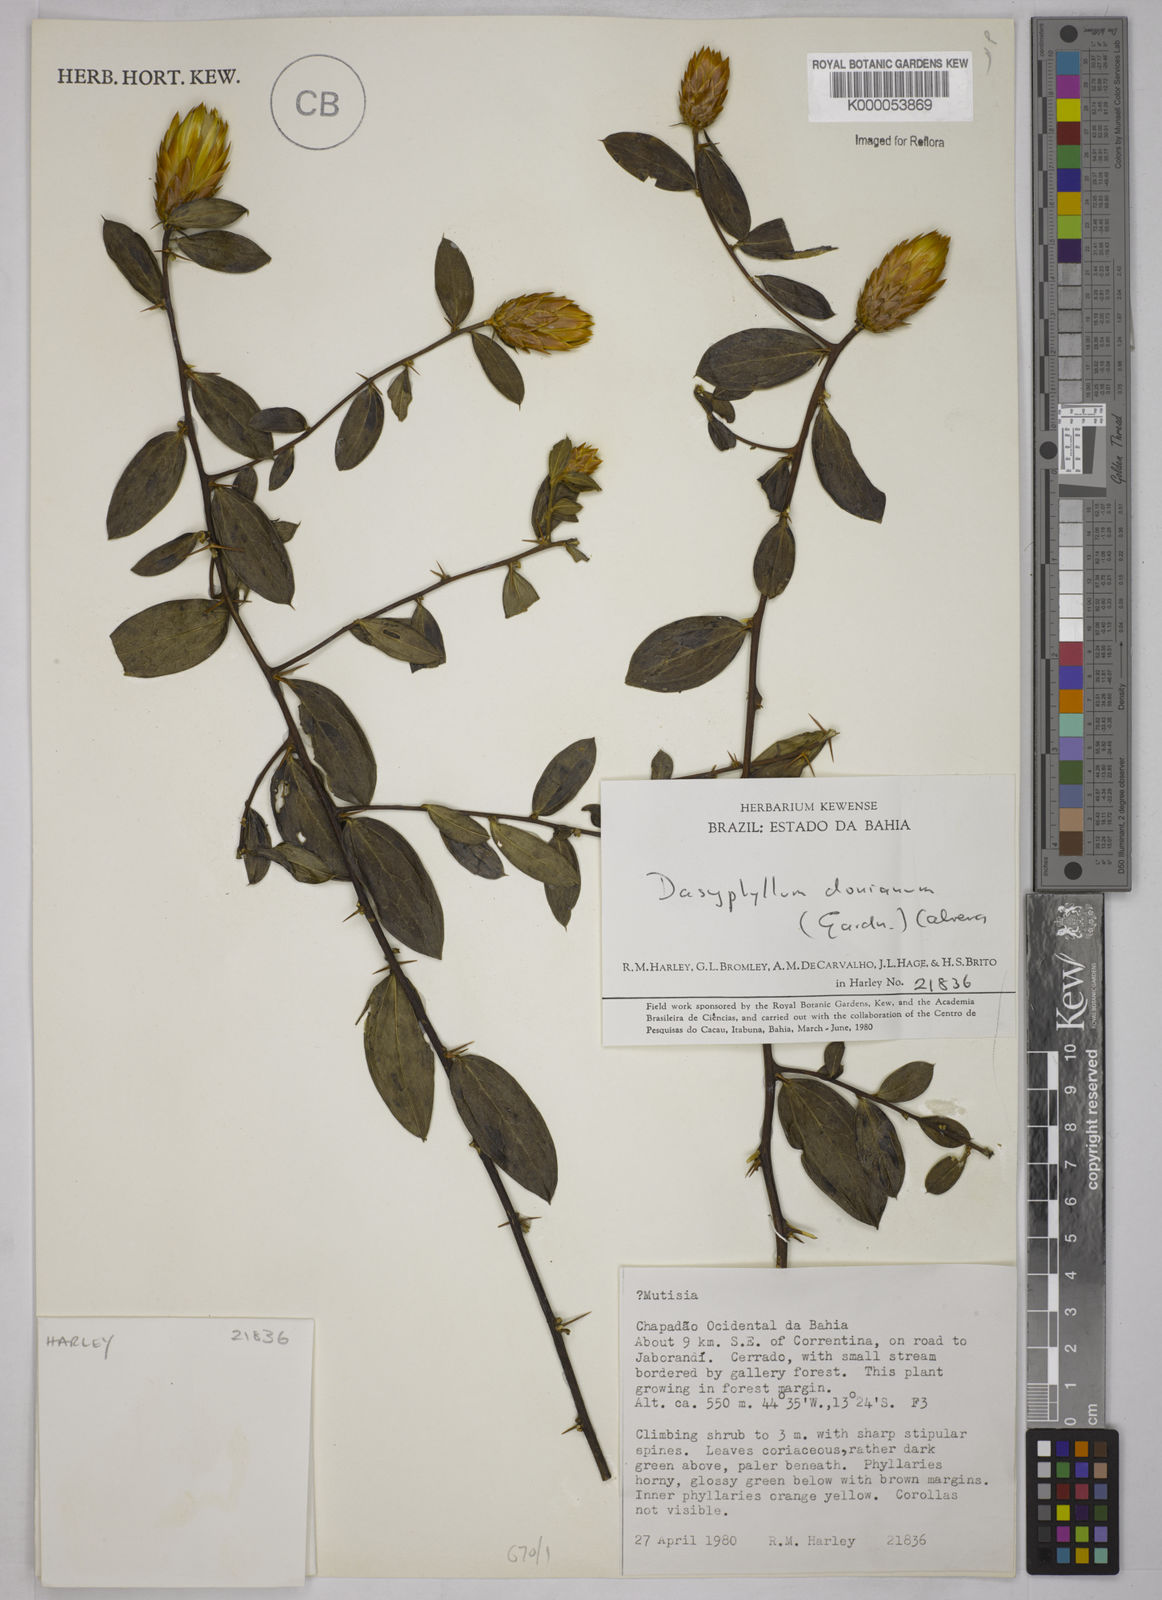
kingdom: Plantae
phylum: Tracheophyta
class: Magnoliopsida
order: Asterales
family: Asteraceae
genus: Dasyphyllum
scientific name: Dasyphyllum donianum
